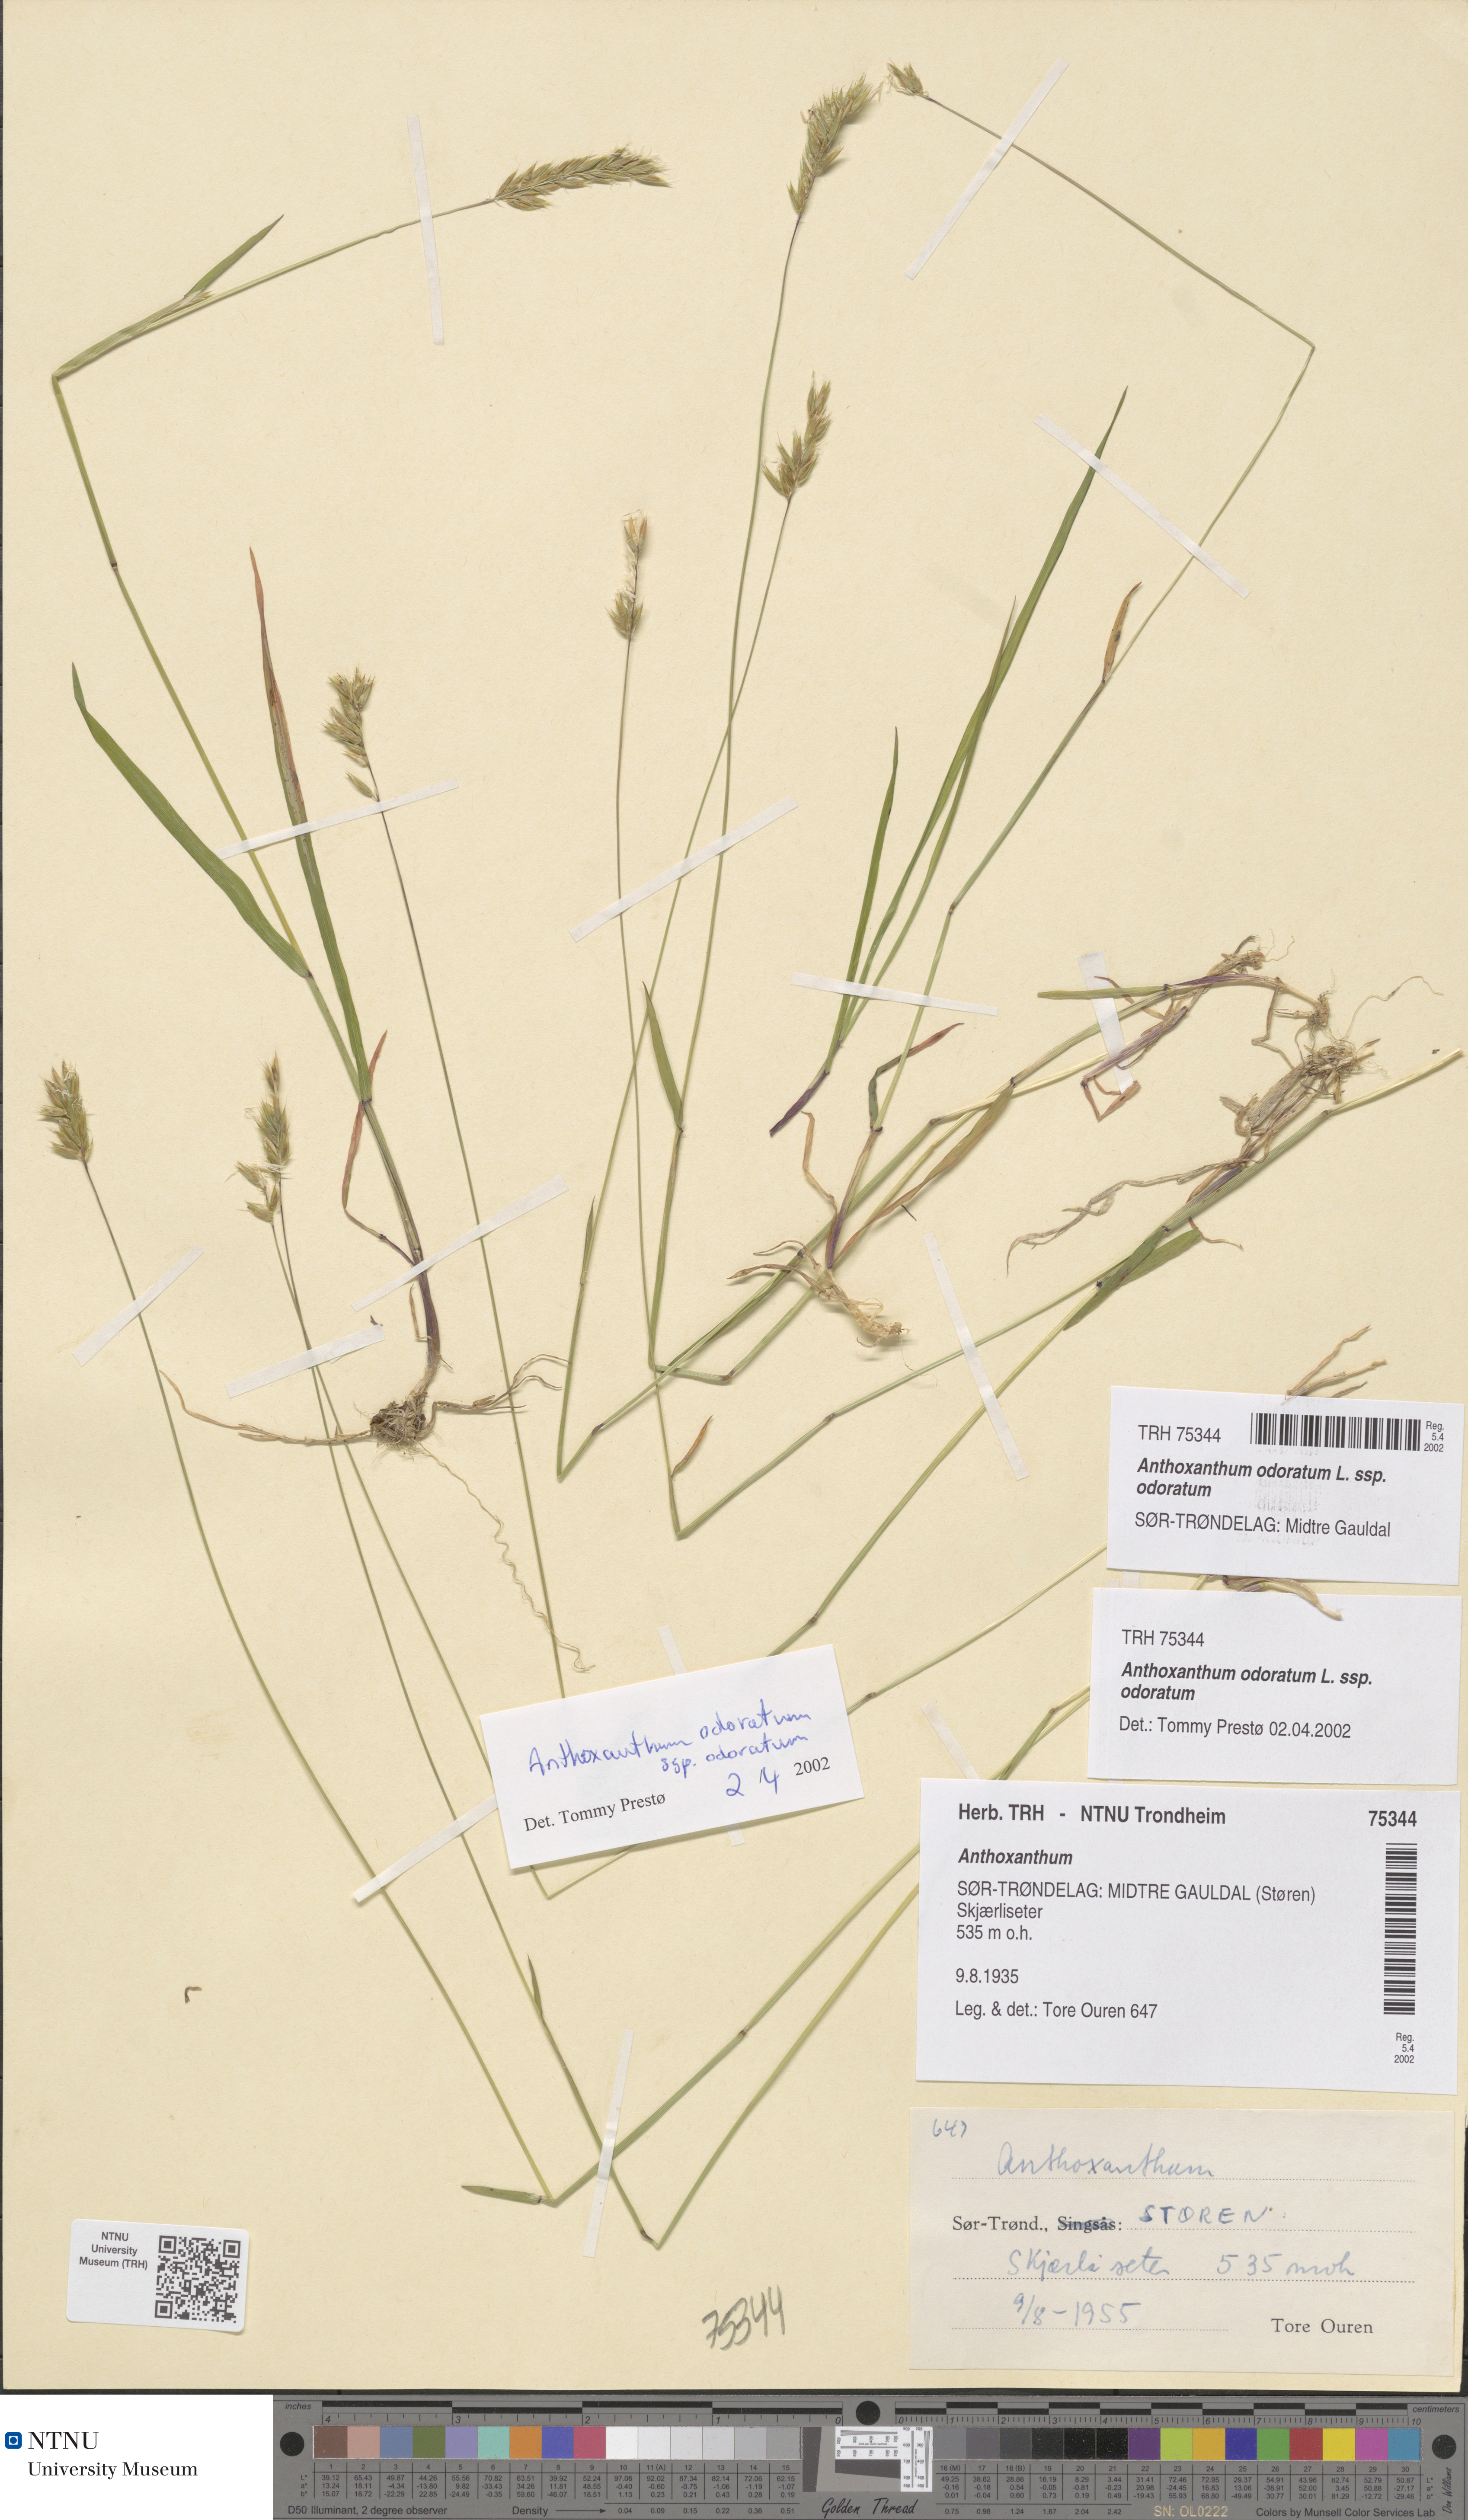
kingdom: Plantae
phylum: Tracheophyta
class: Liliopsida
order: Poales
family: Poaceae
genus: Anthoxanthum
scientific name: Anthoxanthum odoratum
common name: Sweet vernalgrass
